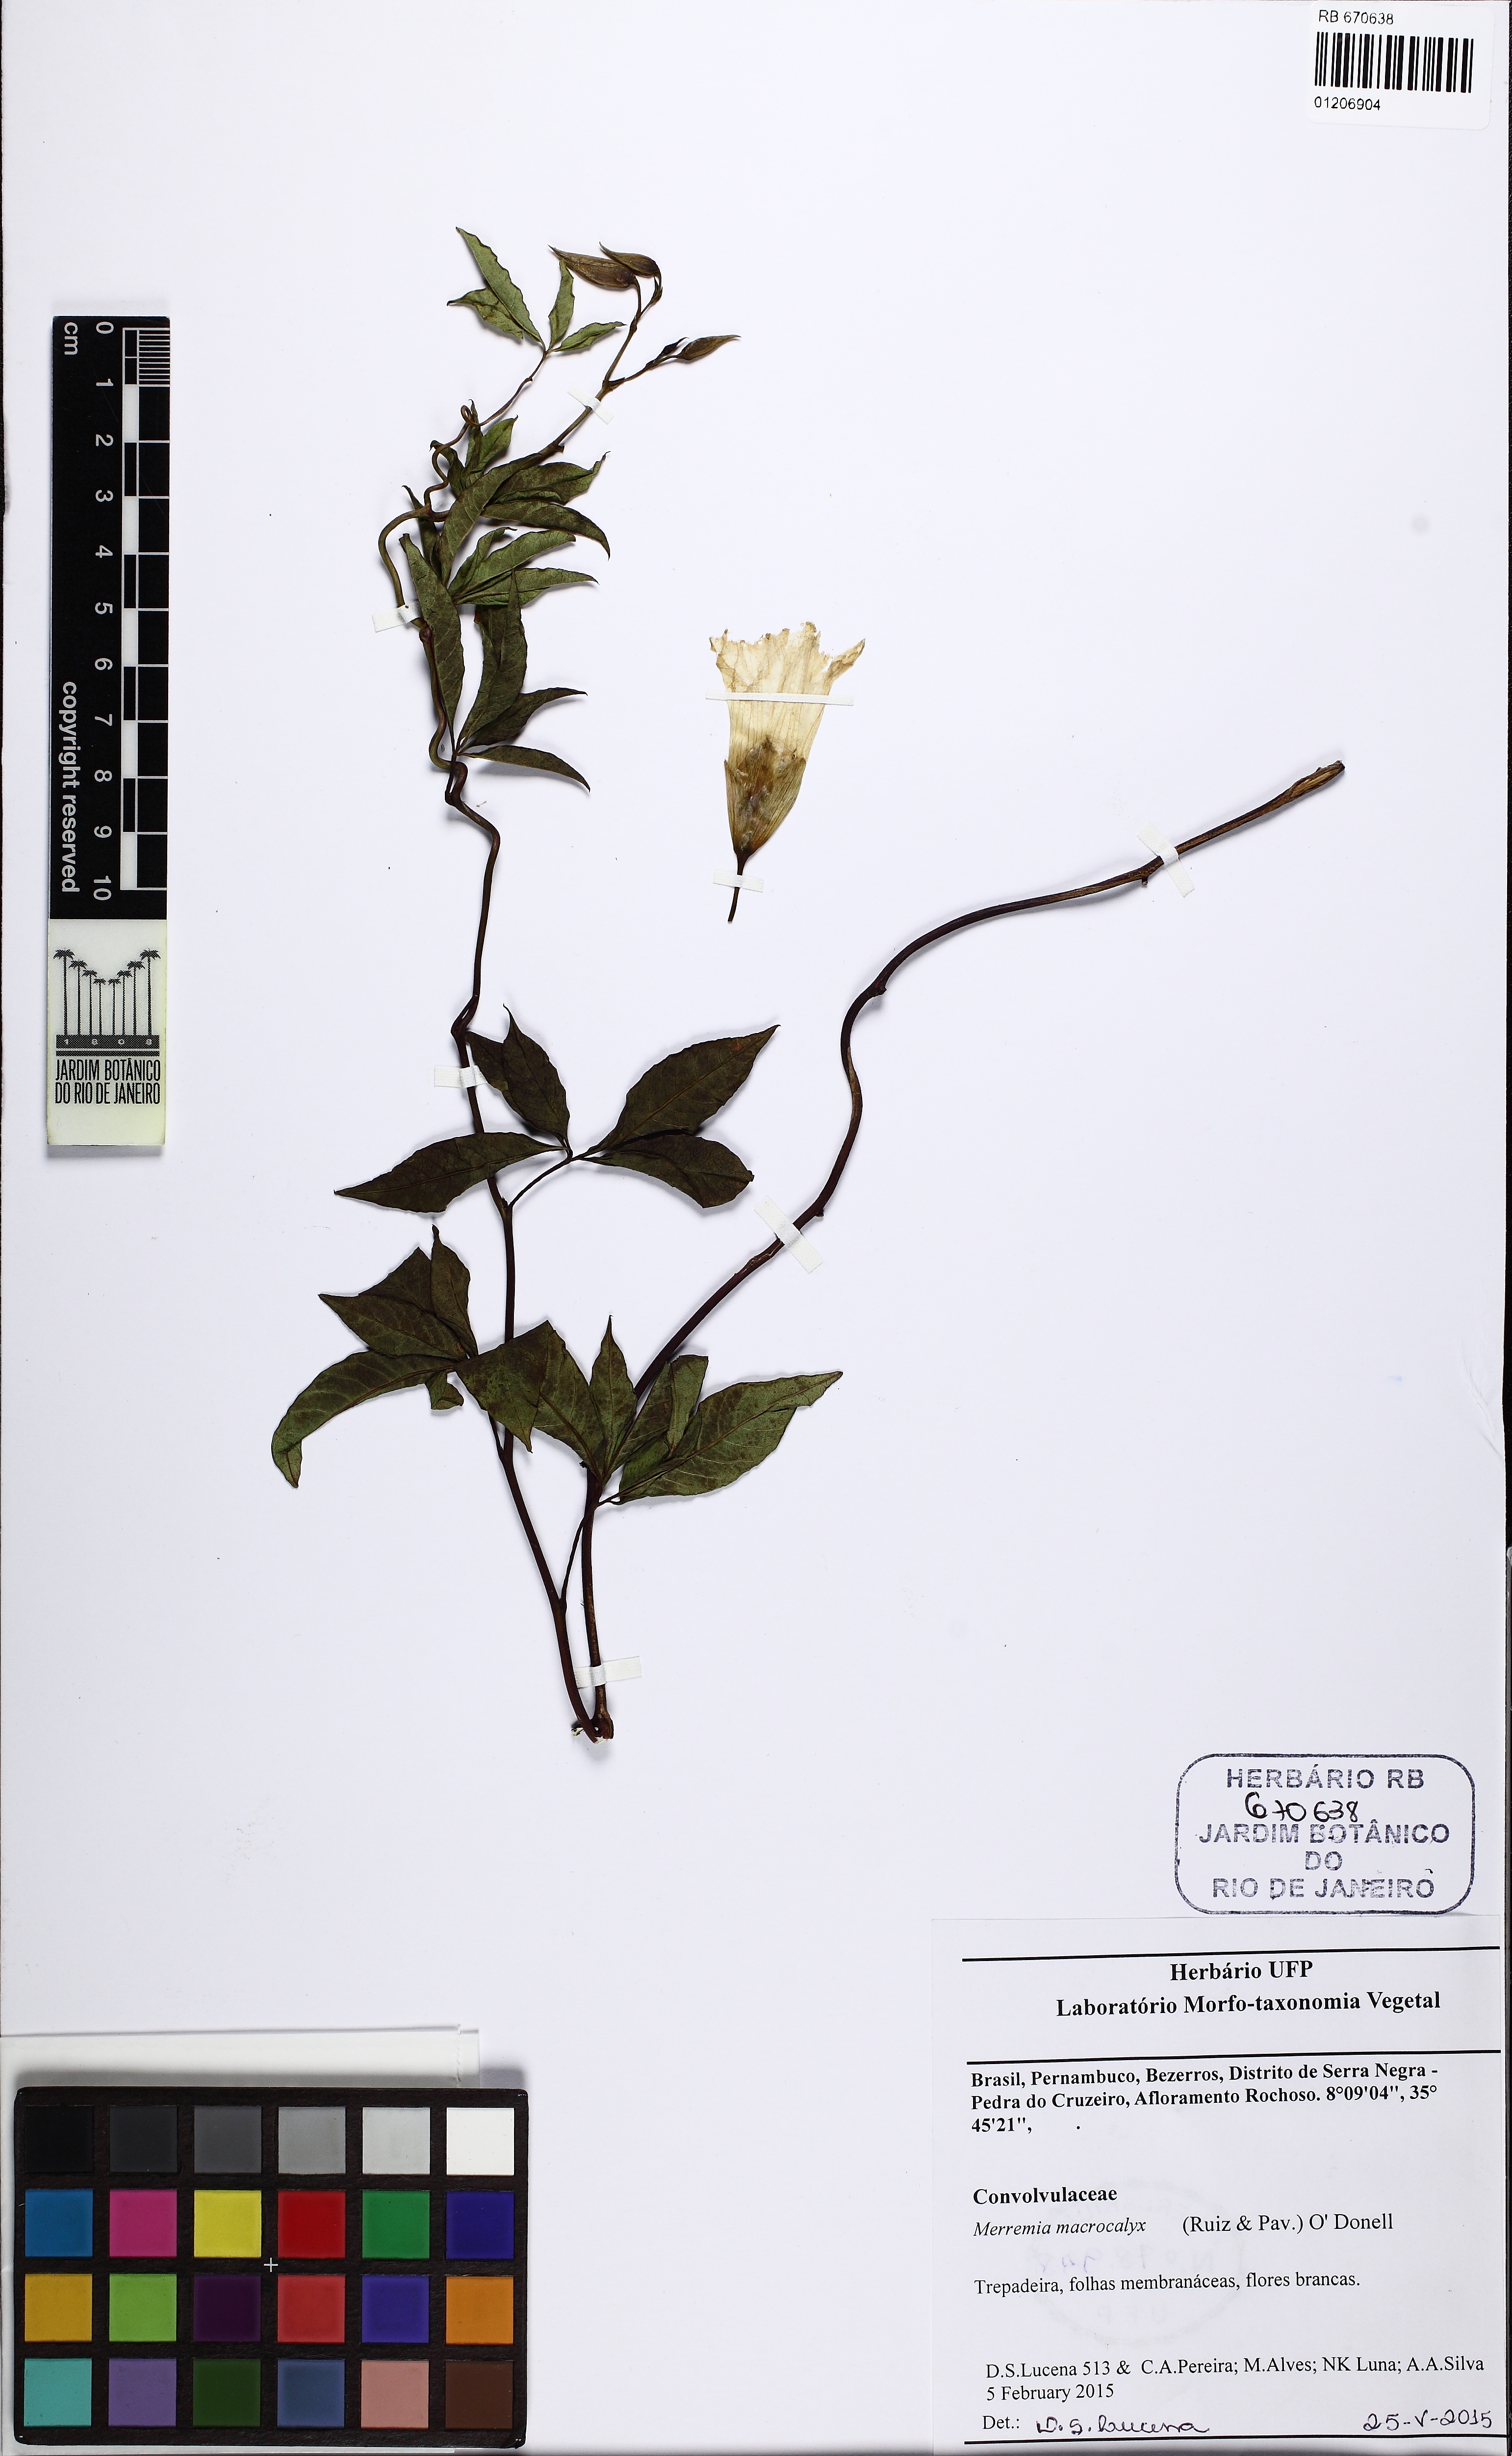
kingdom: Plantae
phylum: Tracheophyta
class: Magnoliopsida
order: Solanales
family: Convolvulaceae
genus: Distimake
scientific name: Distimake macrocalyx
